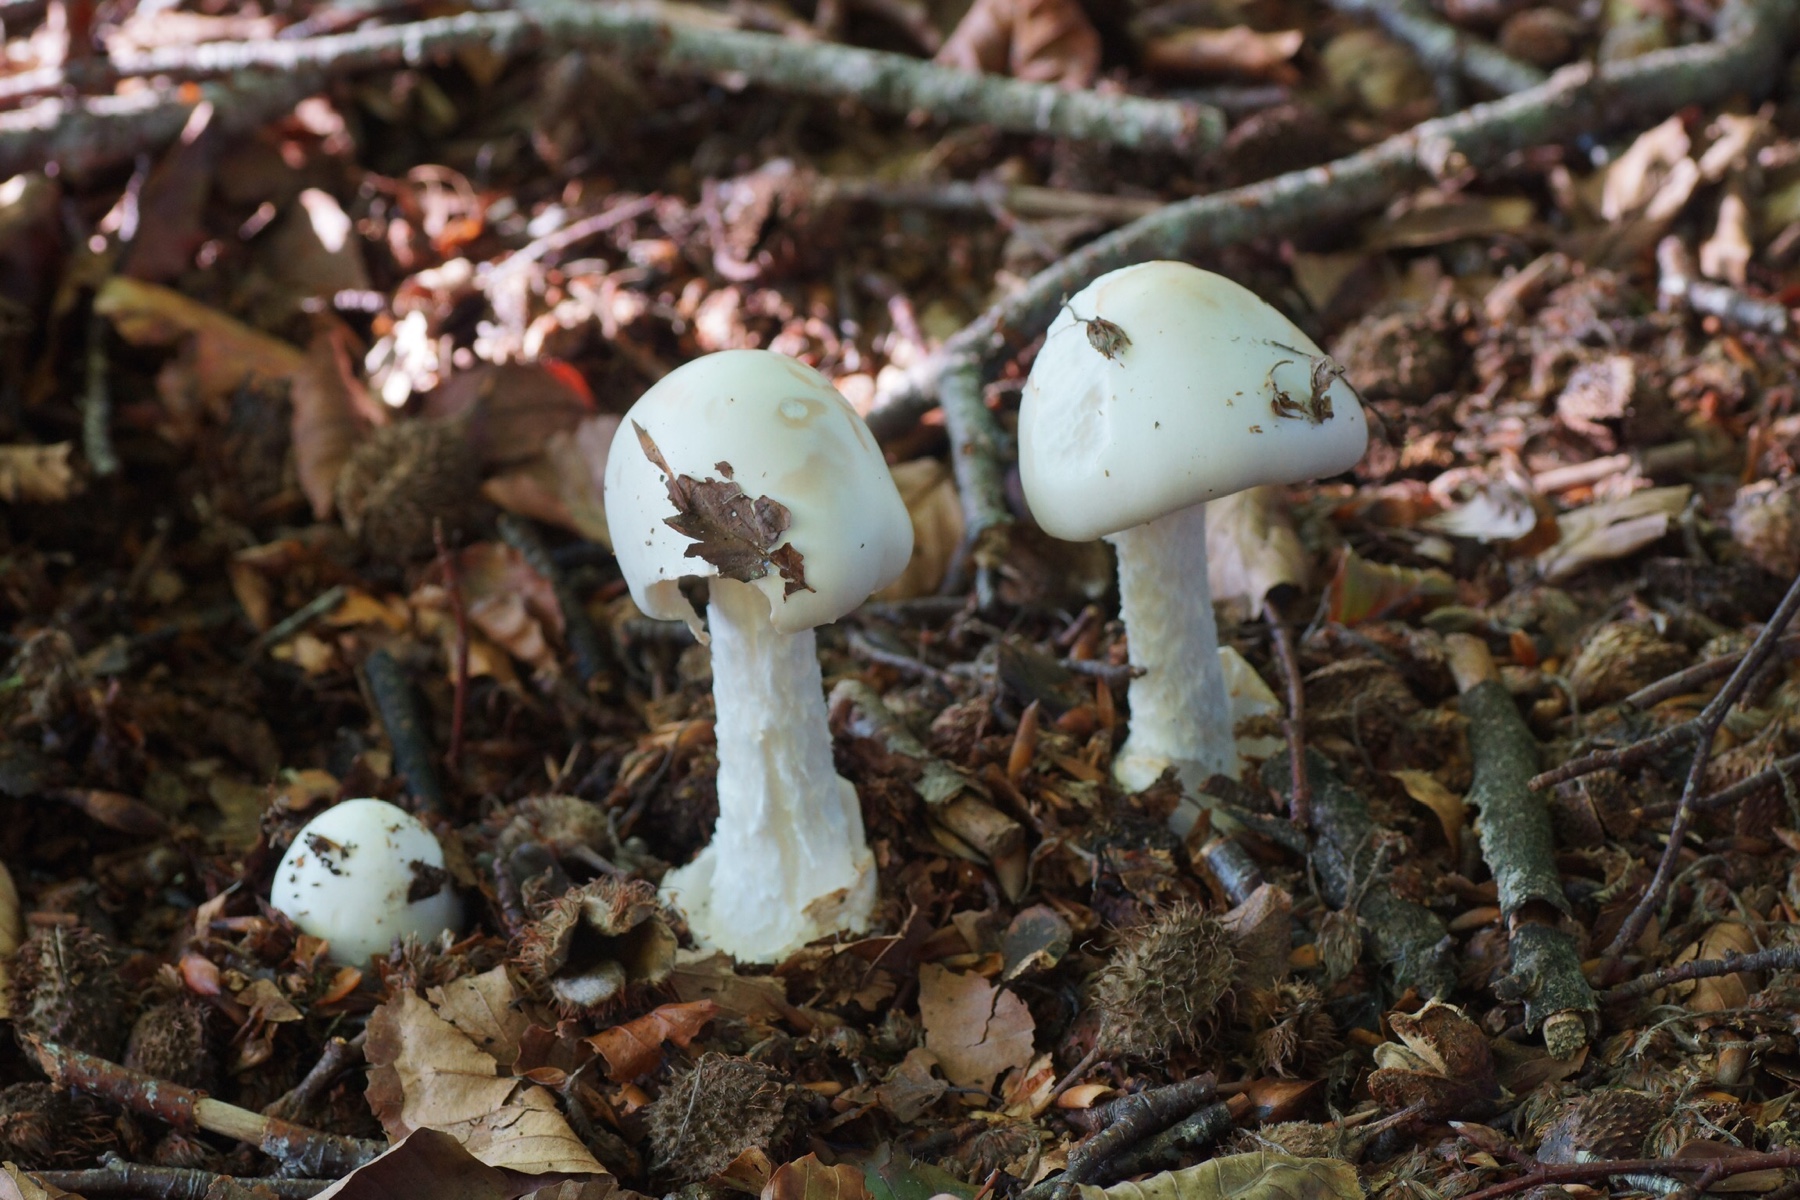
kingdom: Fungi
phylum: Basidiomycota
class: Agaricomycetes
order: Agaricales
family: Amanitaceae
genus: Amanita
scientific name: Amanita virosa
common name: snehvid fluesvamp
